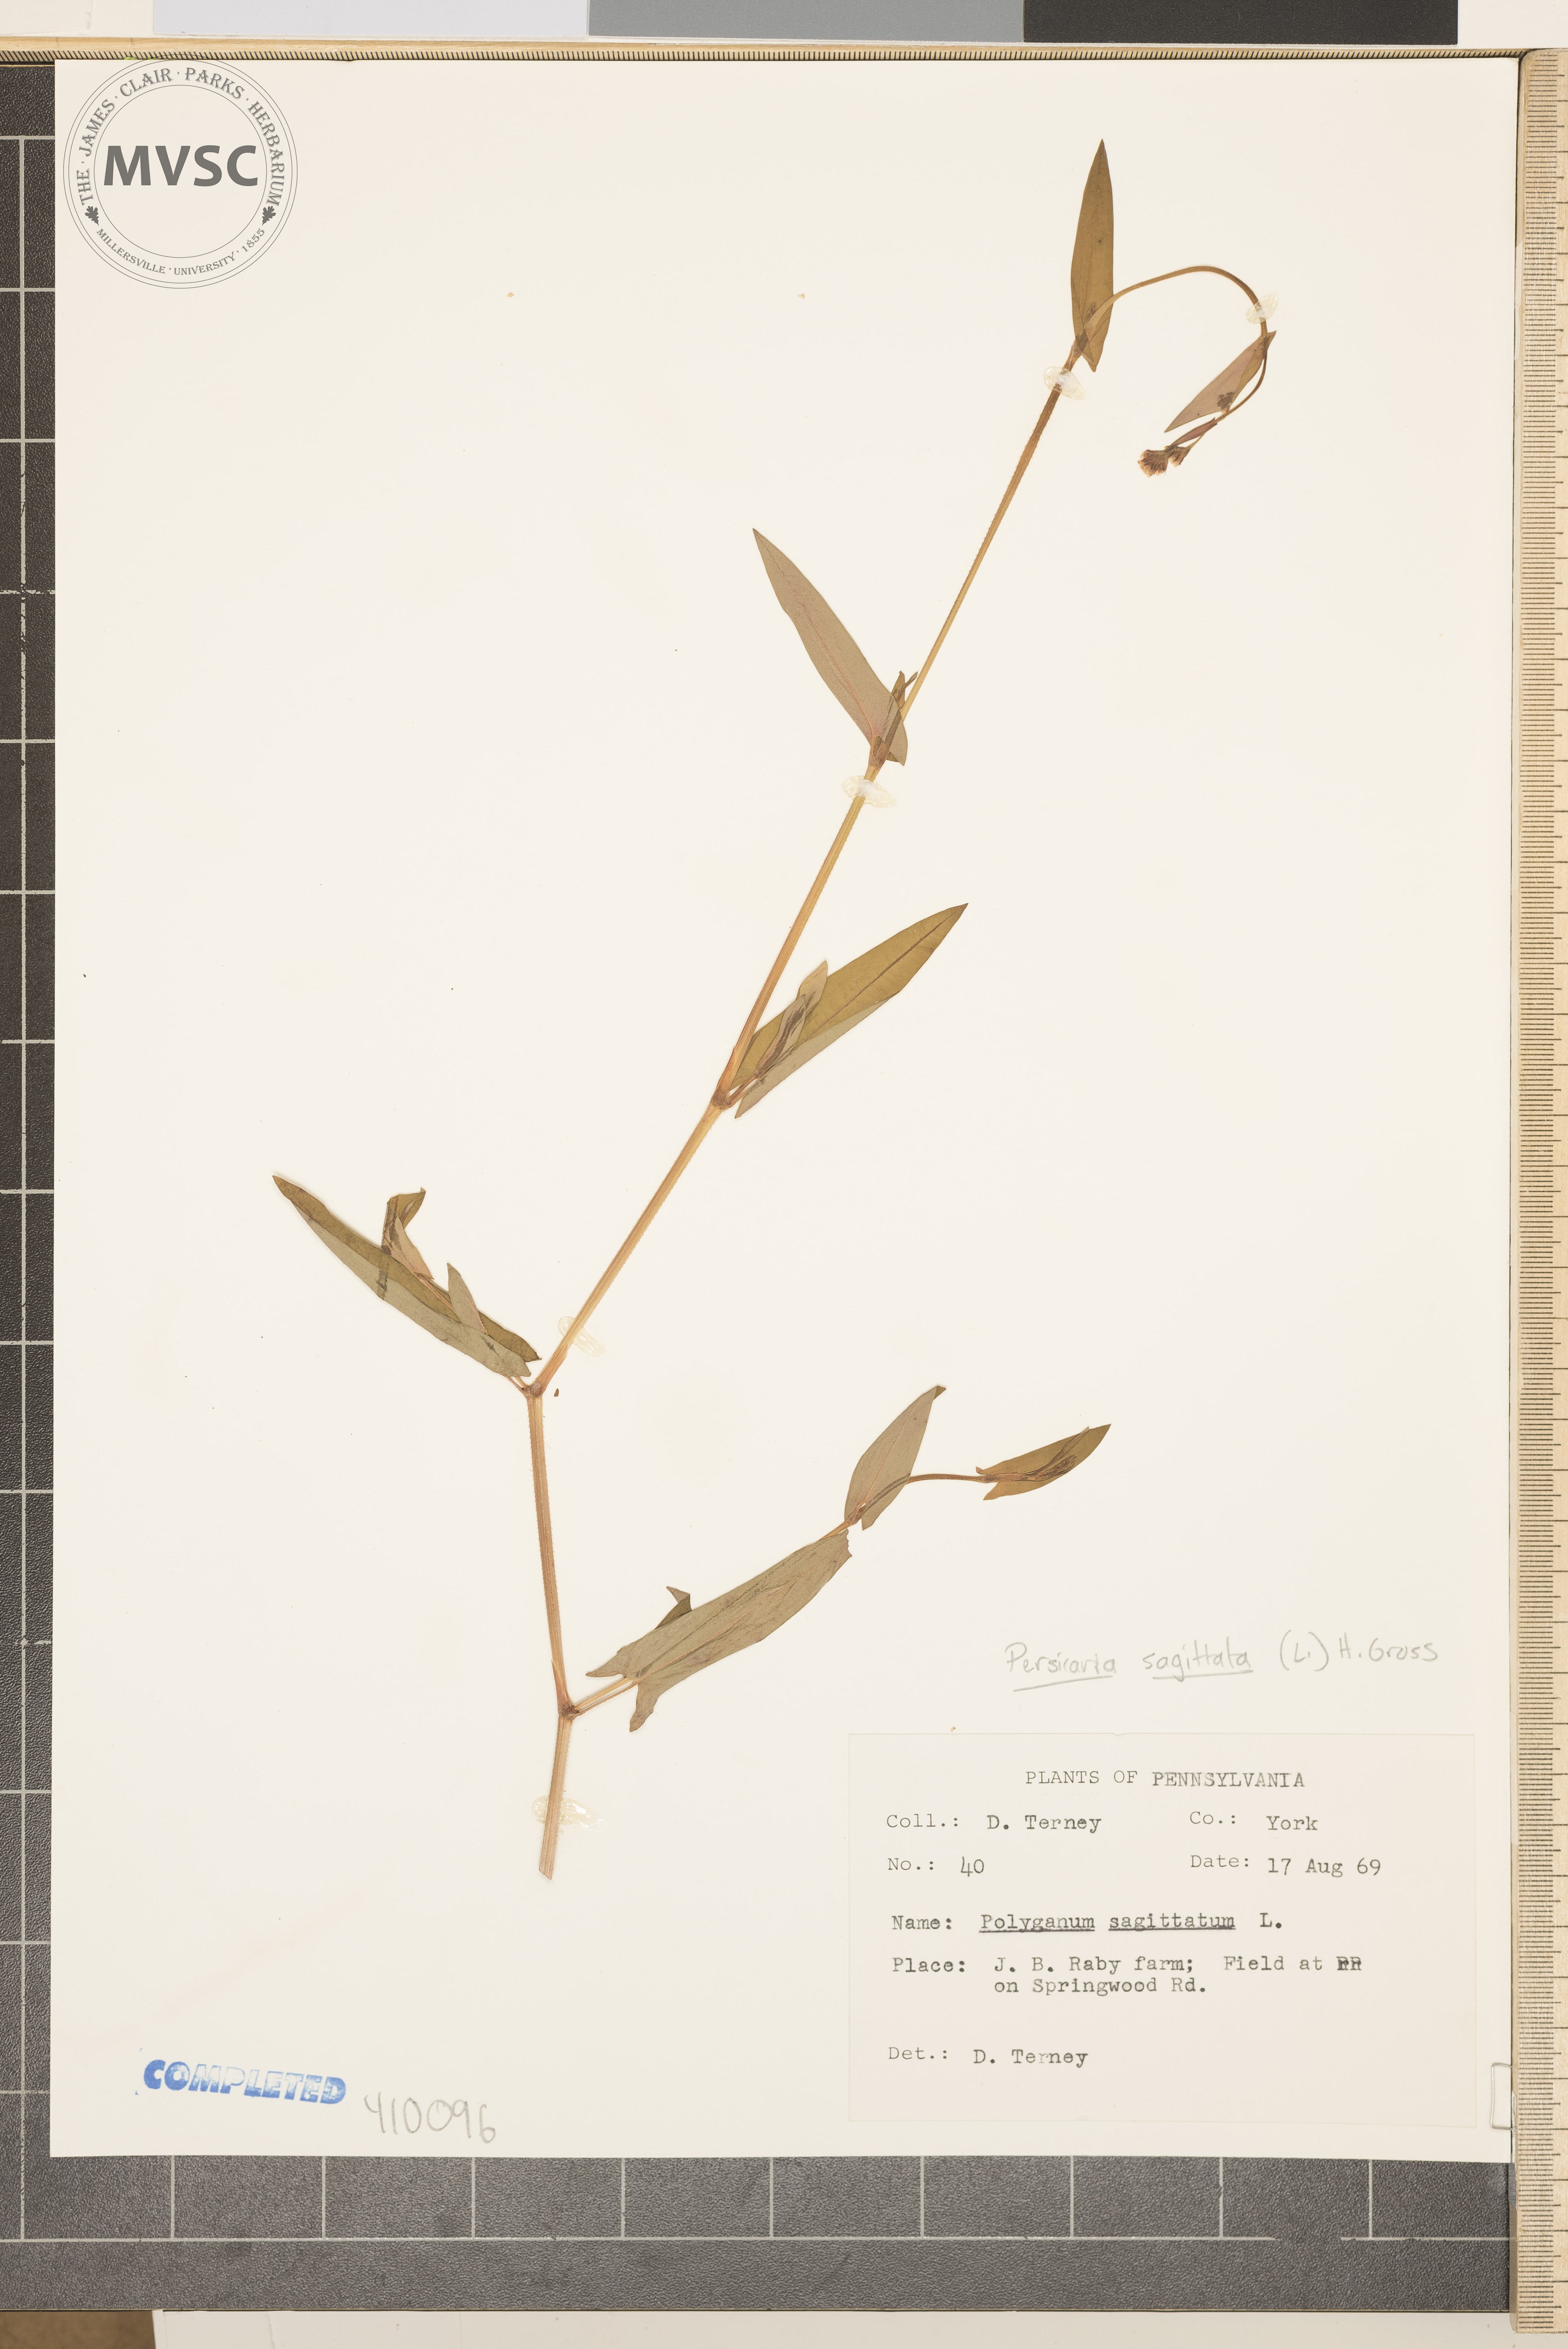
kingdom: Plantae
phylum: Tracheophyta
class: Magnoliopsida
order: Caryophyllales
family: Polygonaceae
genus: Persicaria
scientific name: Persicaria sagittata
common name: American tearthumb
